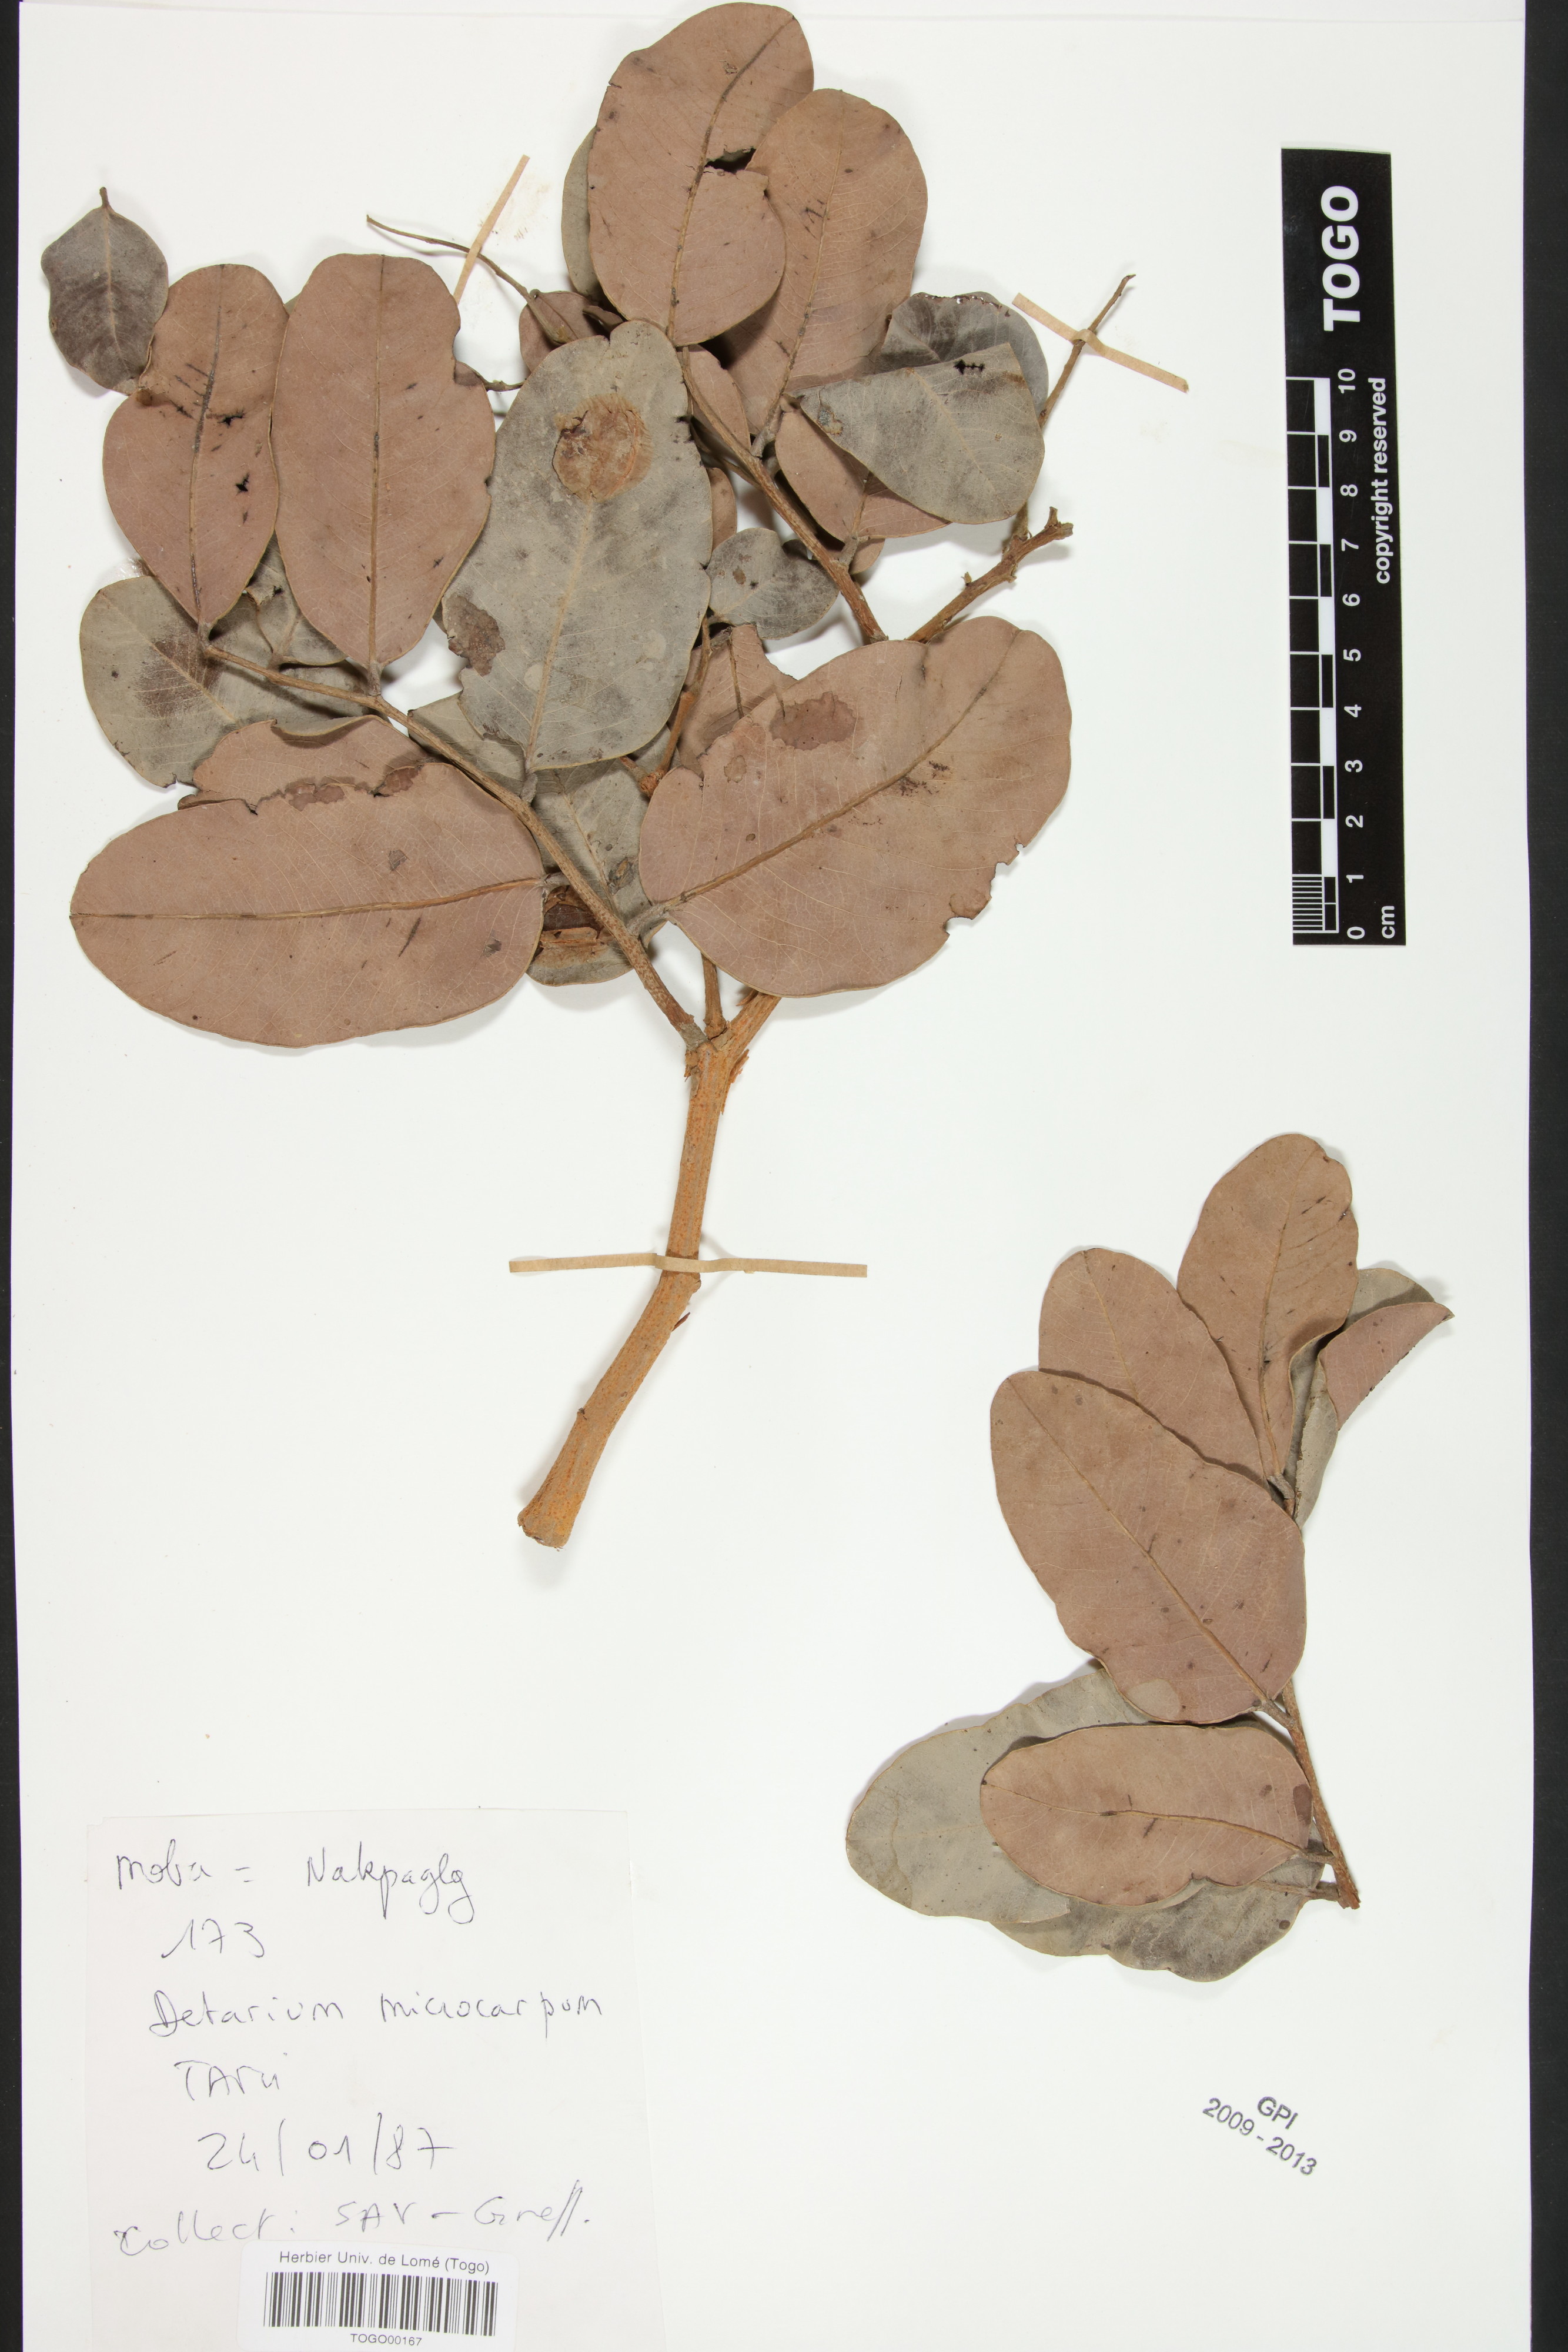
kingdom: Plantae
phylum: Tracheophyta
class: Magnoliopsida
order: Fabales
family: Fabaceae
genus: Detarium
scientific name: Detarium microcarpum
